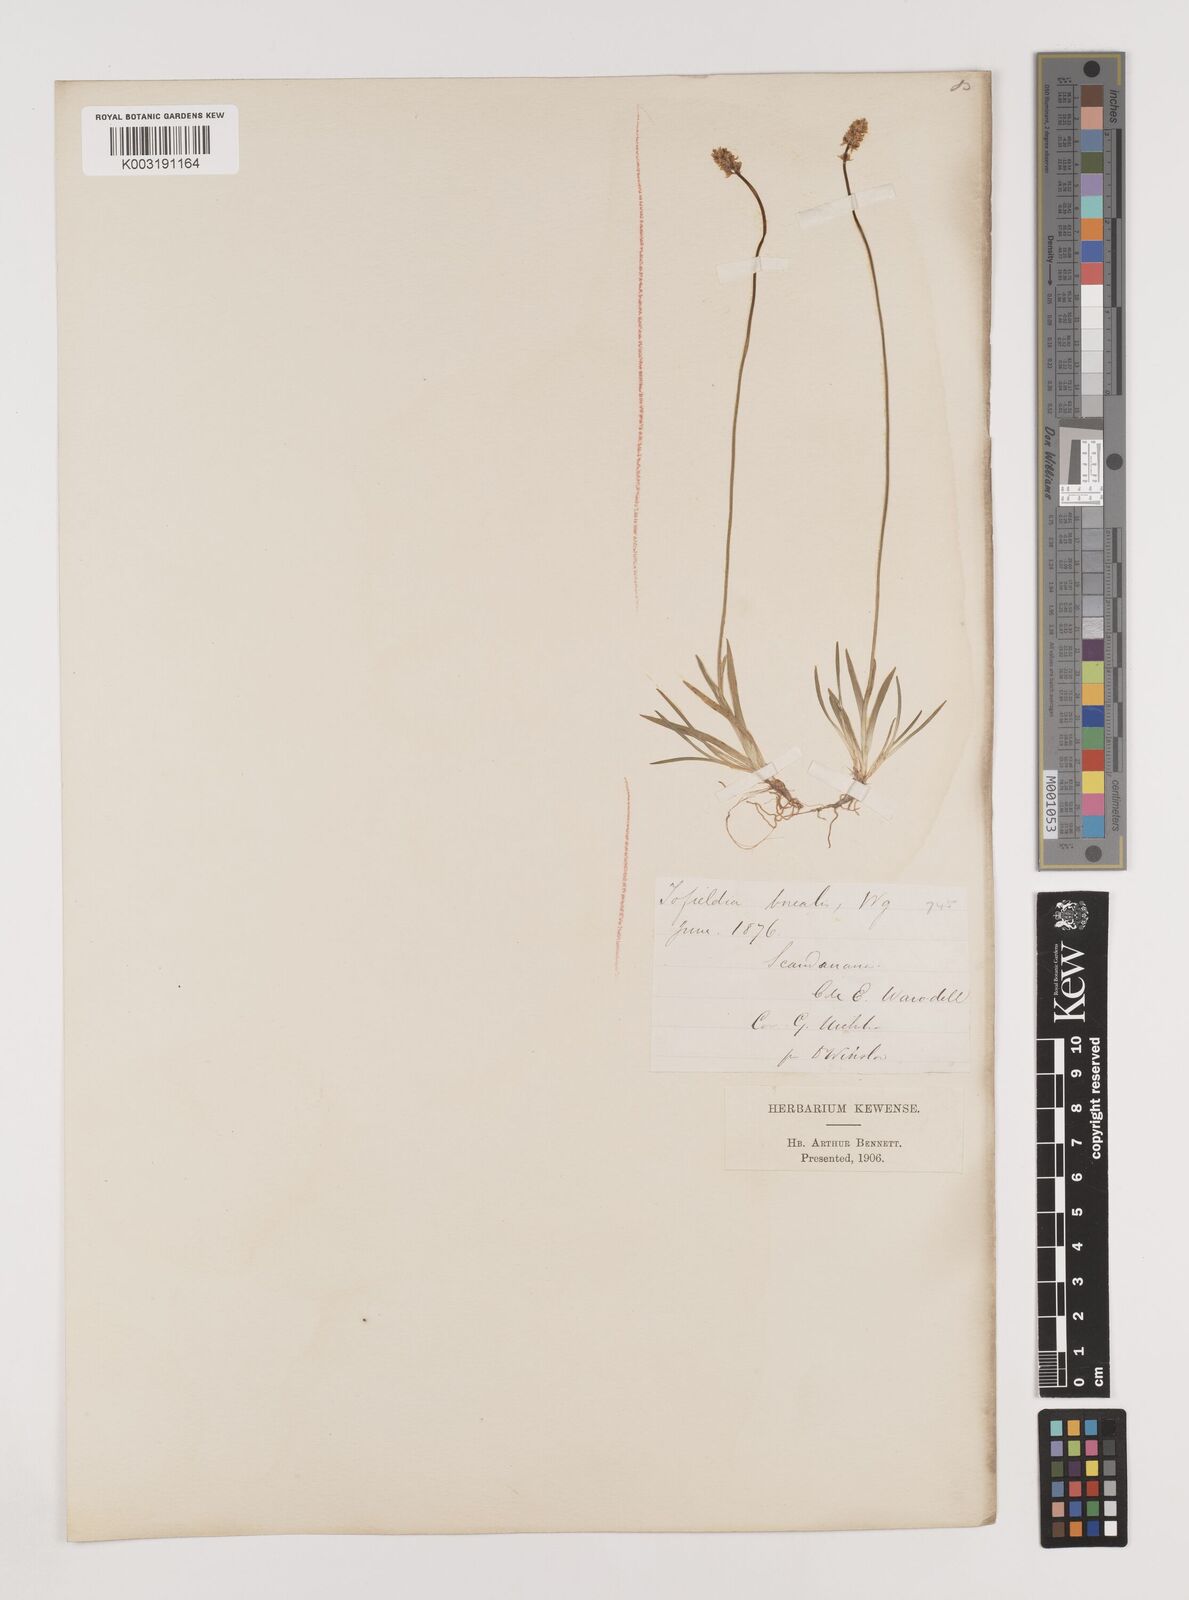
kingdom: Plantae
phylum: Tracheophyta
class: Liliopsida
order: Alismatales
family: Tofieldiaceae
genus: Tofieldia
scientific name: Tofieldia pusilla
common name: Scottish false asphodel
